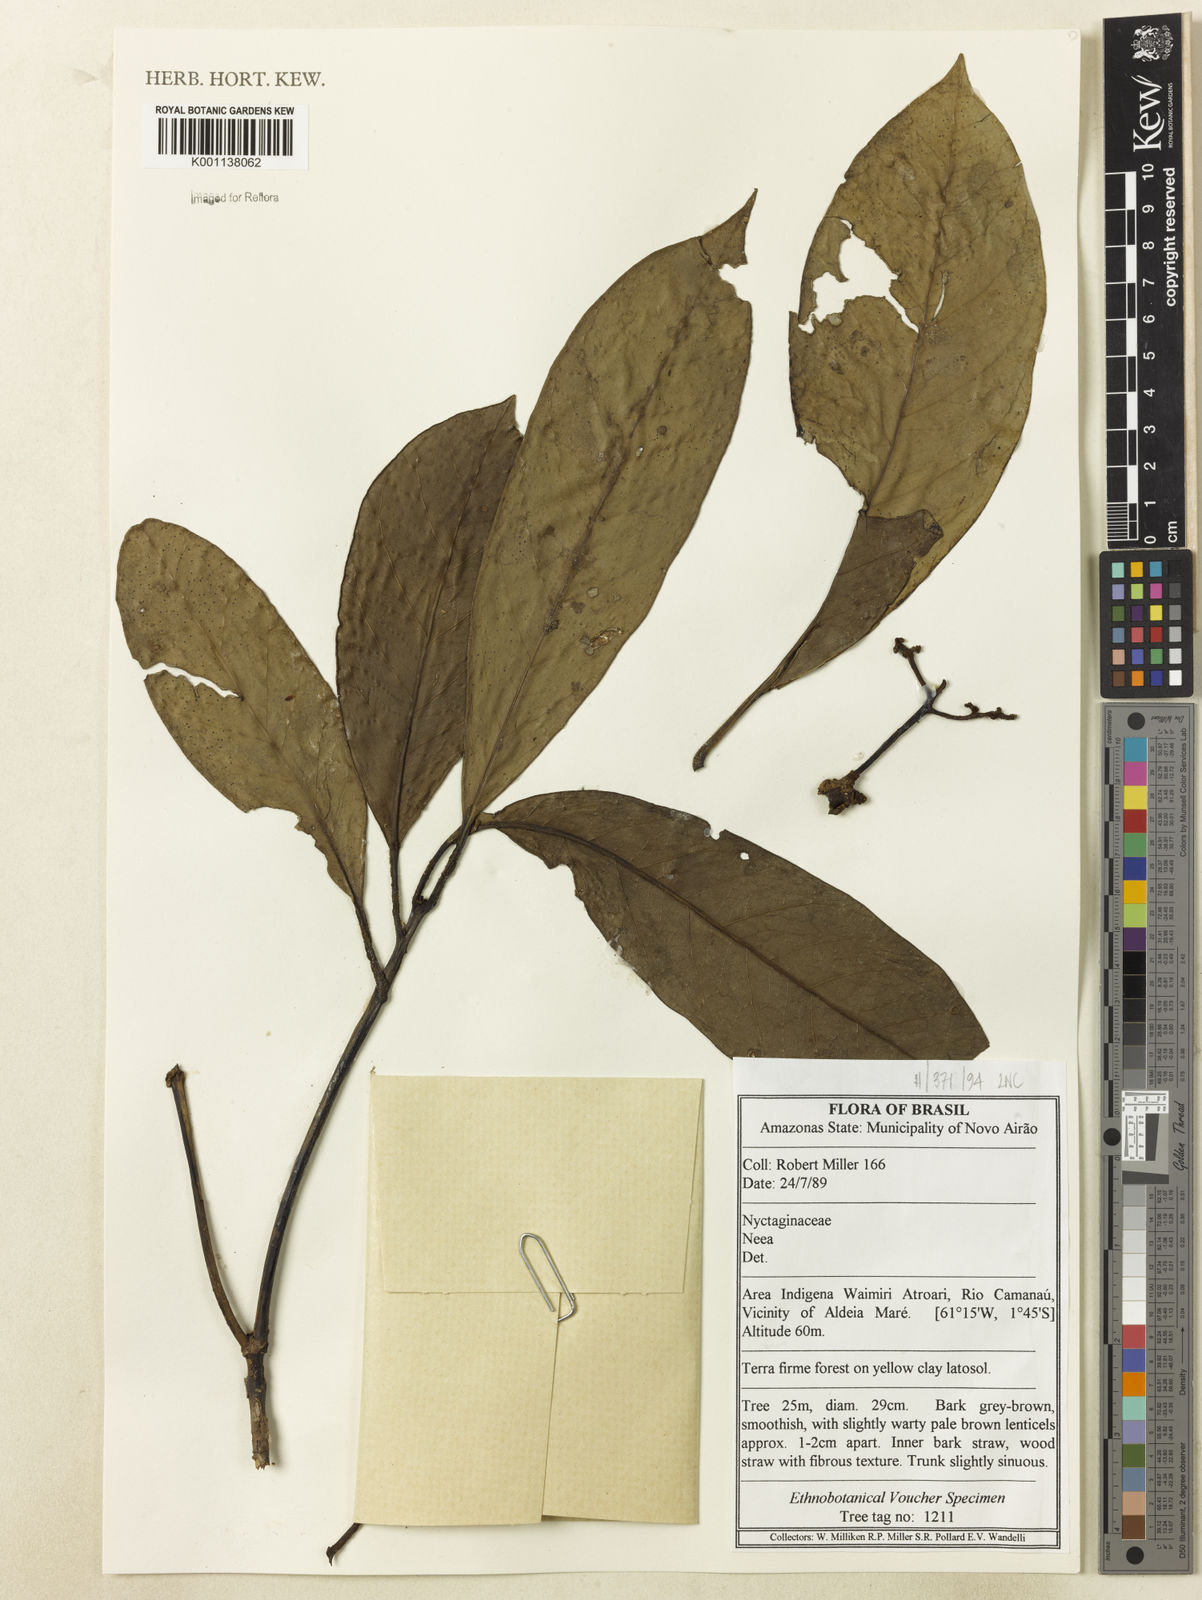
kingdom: Plantae
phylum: Tracheophyta
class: Magnoliopsida
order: Caryophyllales
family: Nyctaginaceae
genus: Neea
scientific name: Neea
